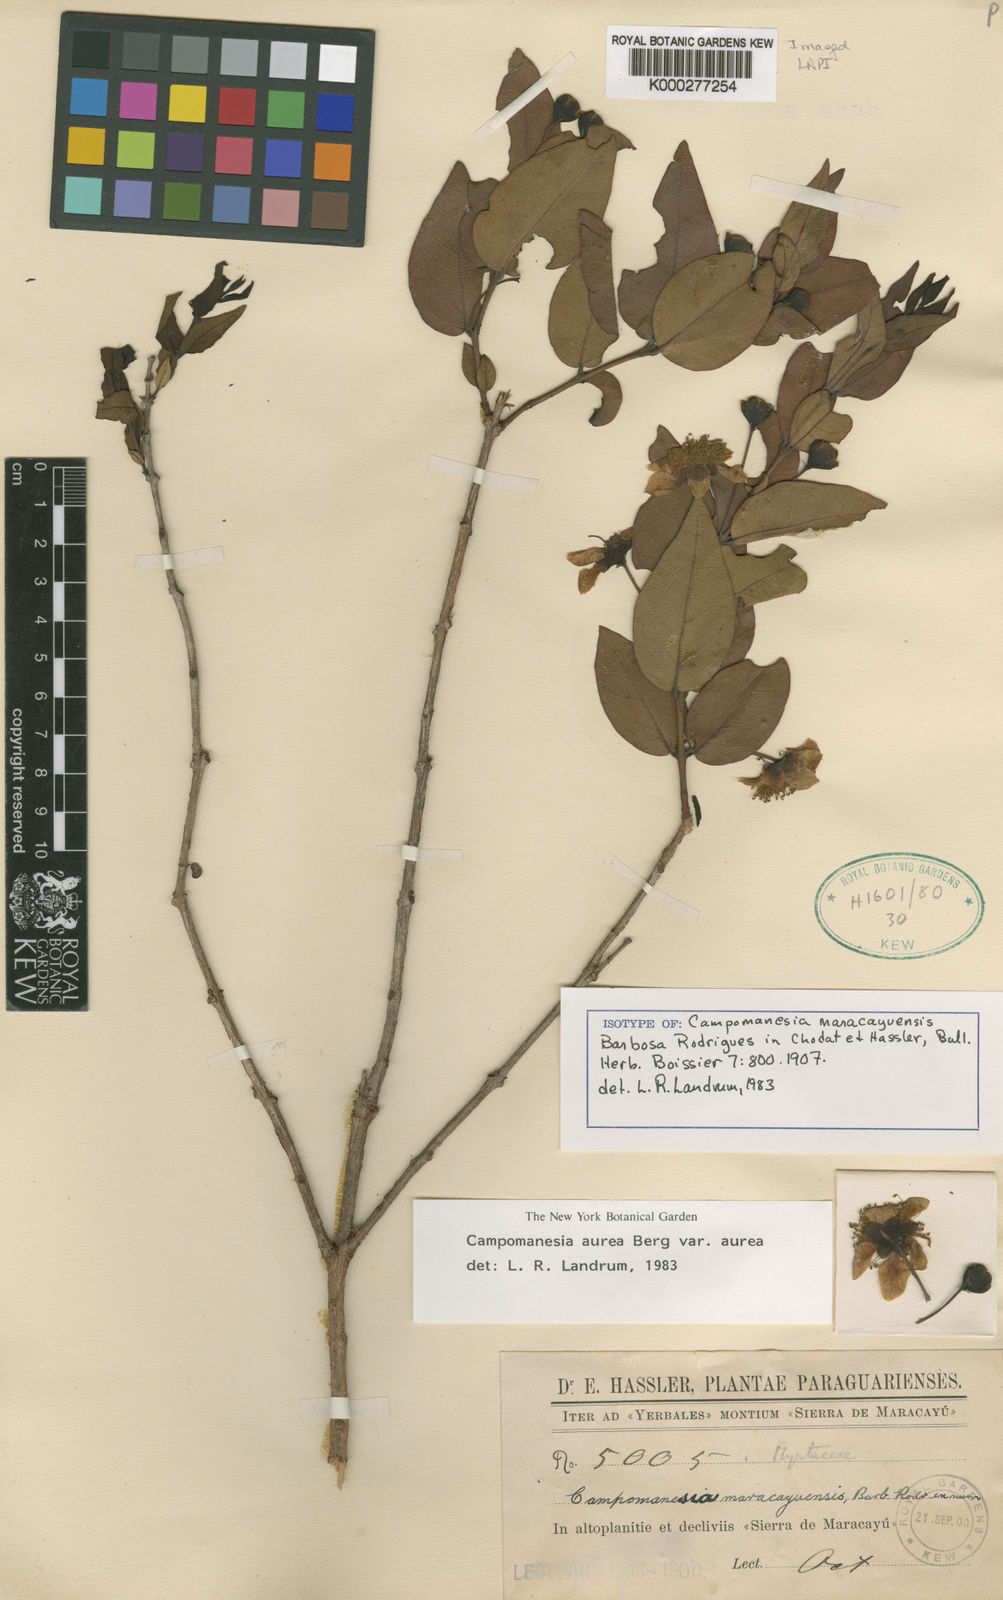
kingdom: Plantae
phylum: Tracheophyta
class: Magnoliopsida
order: Myrtales
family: Myrtaceae
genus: Campomanesia
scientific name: Campomanesia aurea
